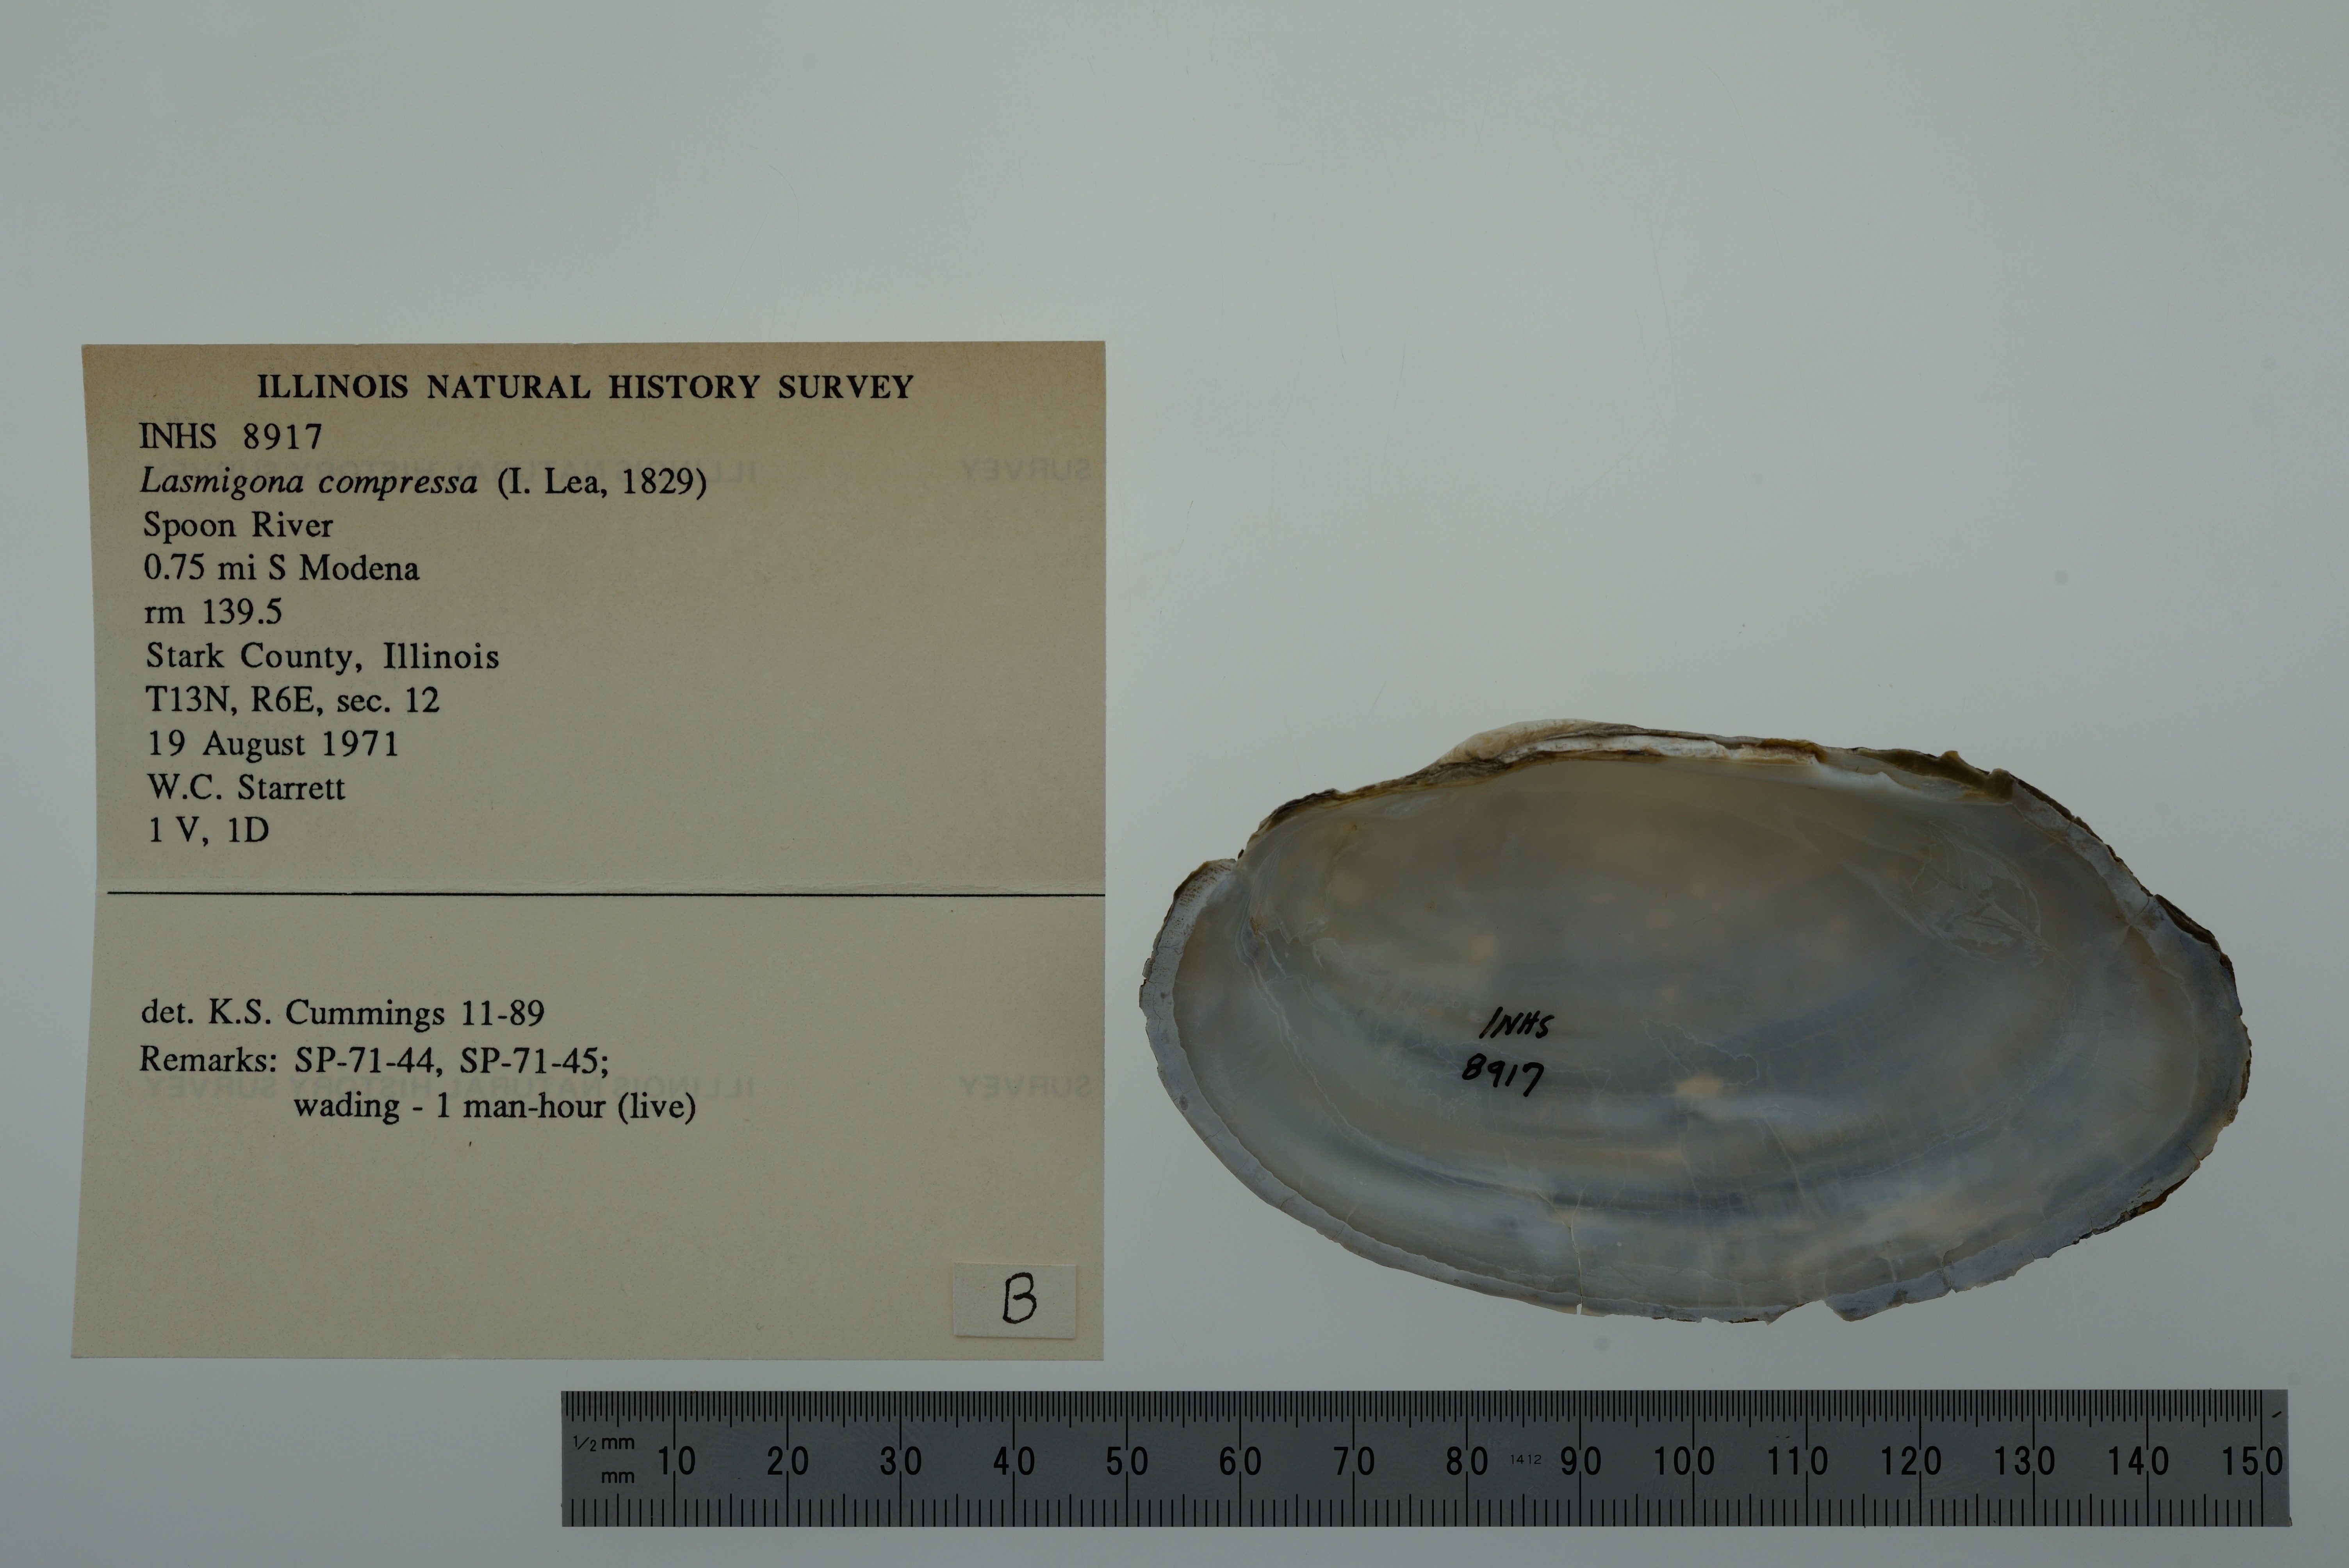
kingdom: Animalia
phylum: Mollusca
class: Bivalvia
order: Unionida
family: Unionidae
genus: Lasmigona
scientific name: Lasmigona compressa
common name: Creek heelsplitter
